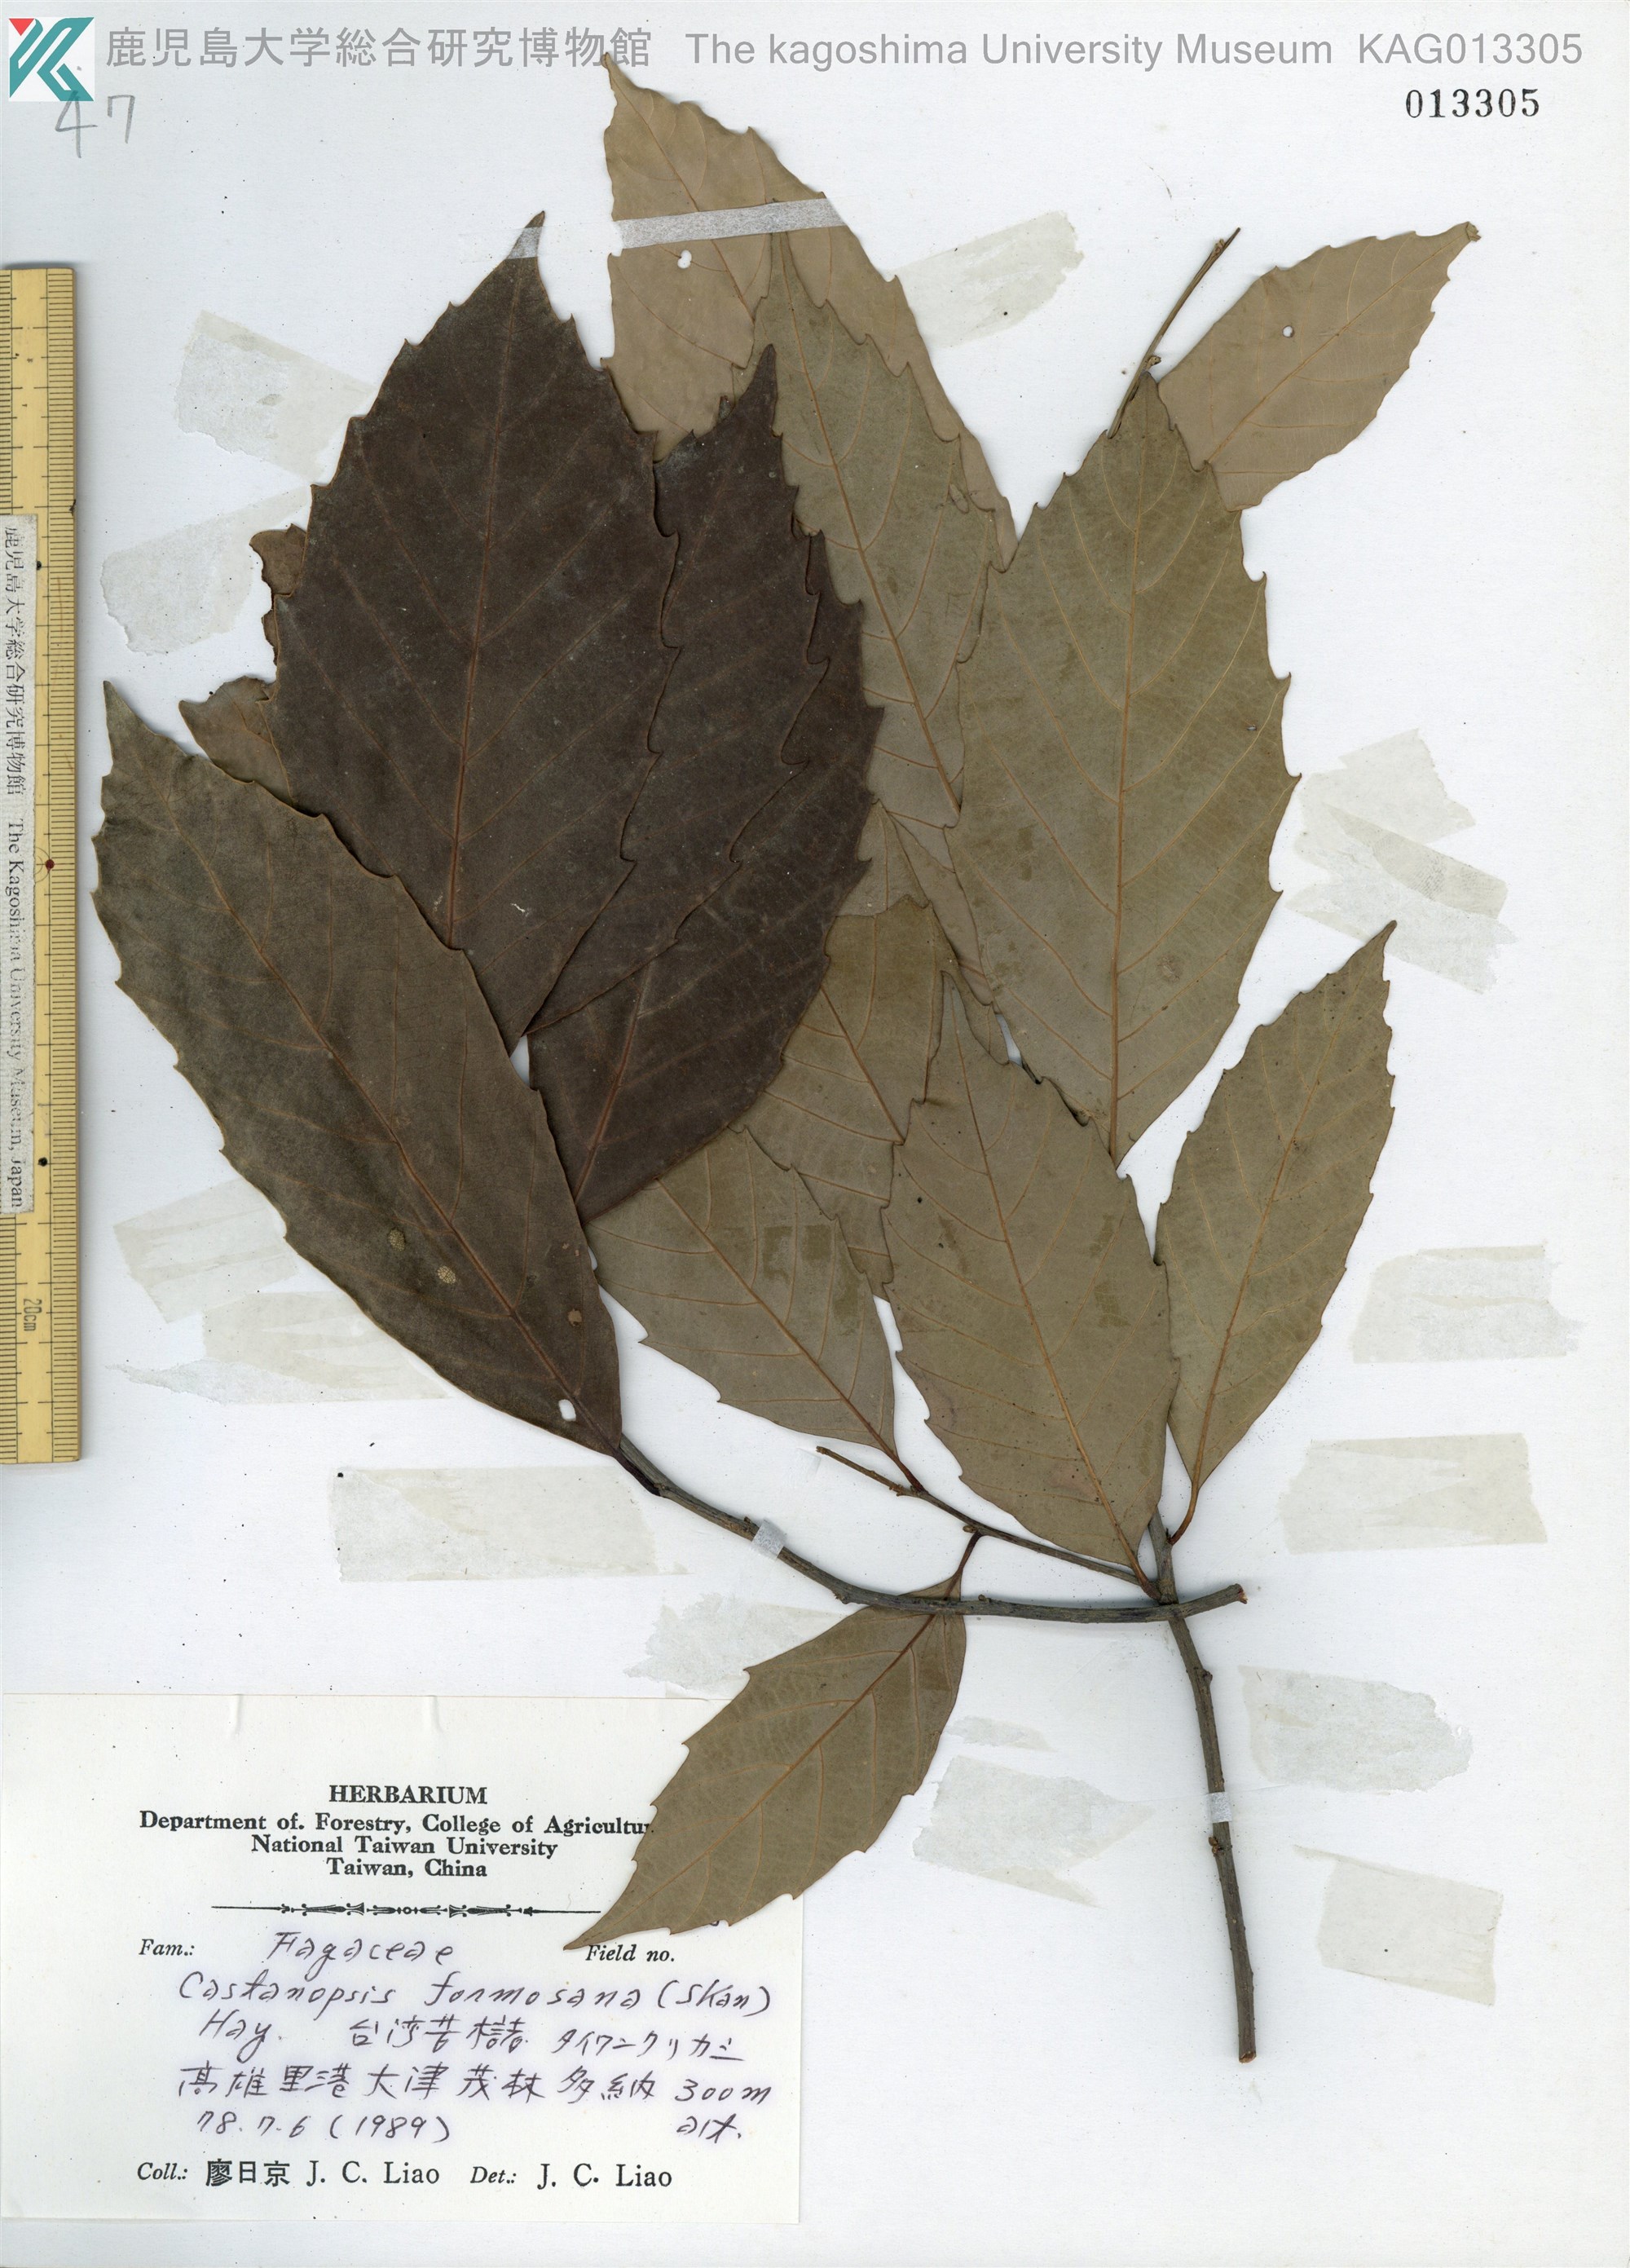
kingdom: Plantae
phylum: Tracheophyta
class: Magnoliopsida
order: Fagales
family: Fagaceae
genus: Castanopsis
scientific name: Castanopsis formosana
